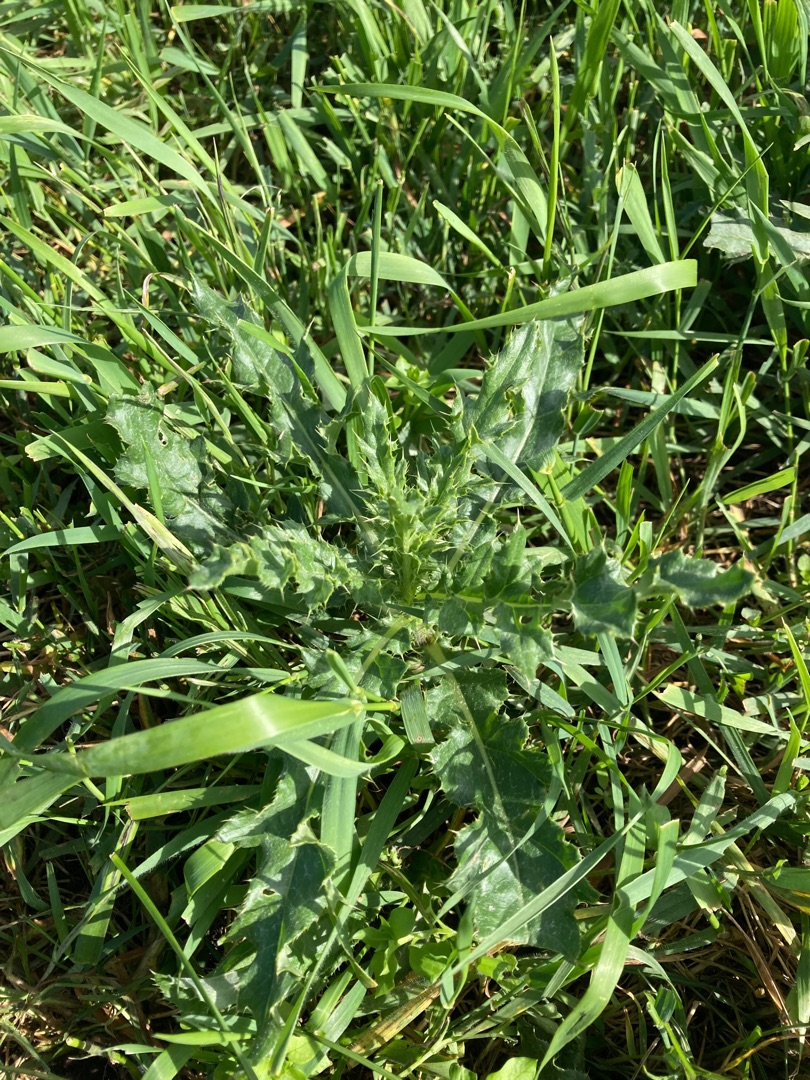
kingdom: Plantae
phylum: Tracheophyta
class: Magnoliopsida
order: Asterales
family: Asteraceae
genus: Cirsium
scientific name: Cirsium arvense
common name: Ager-tidsel
